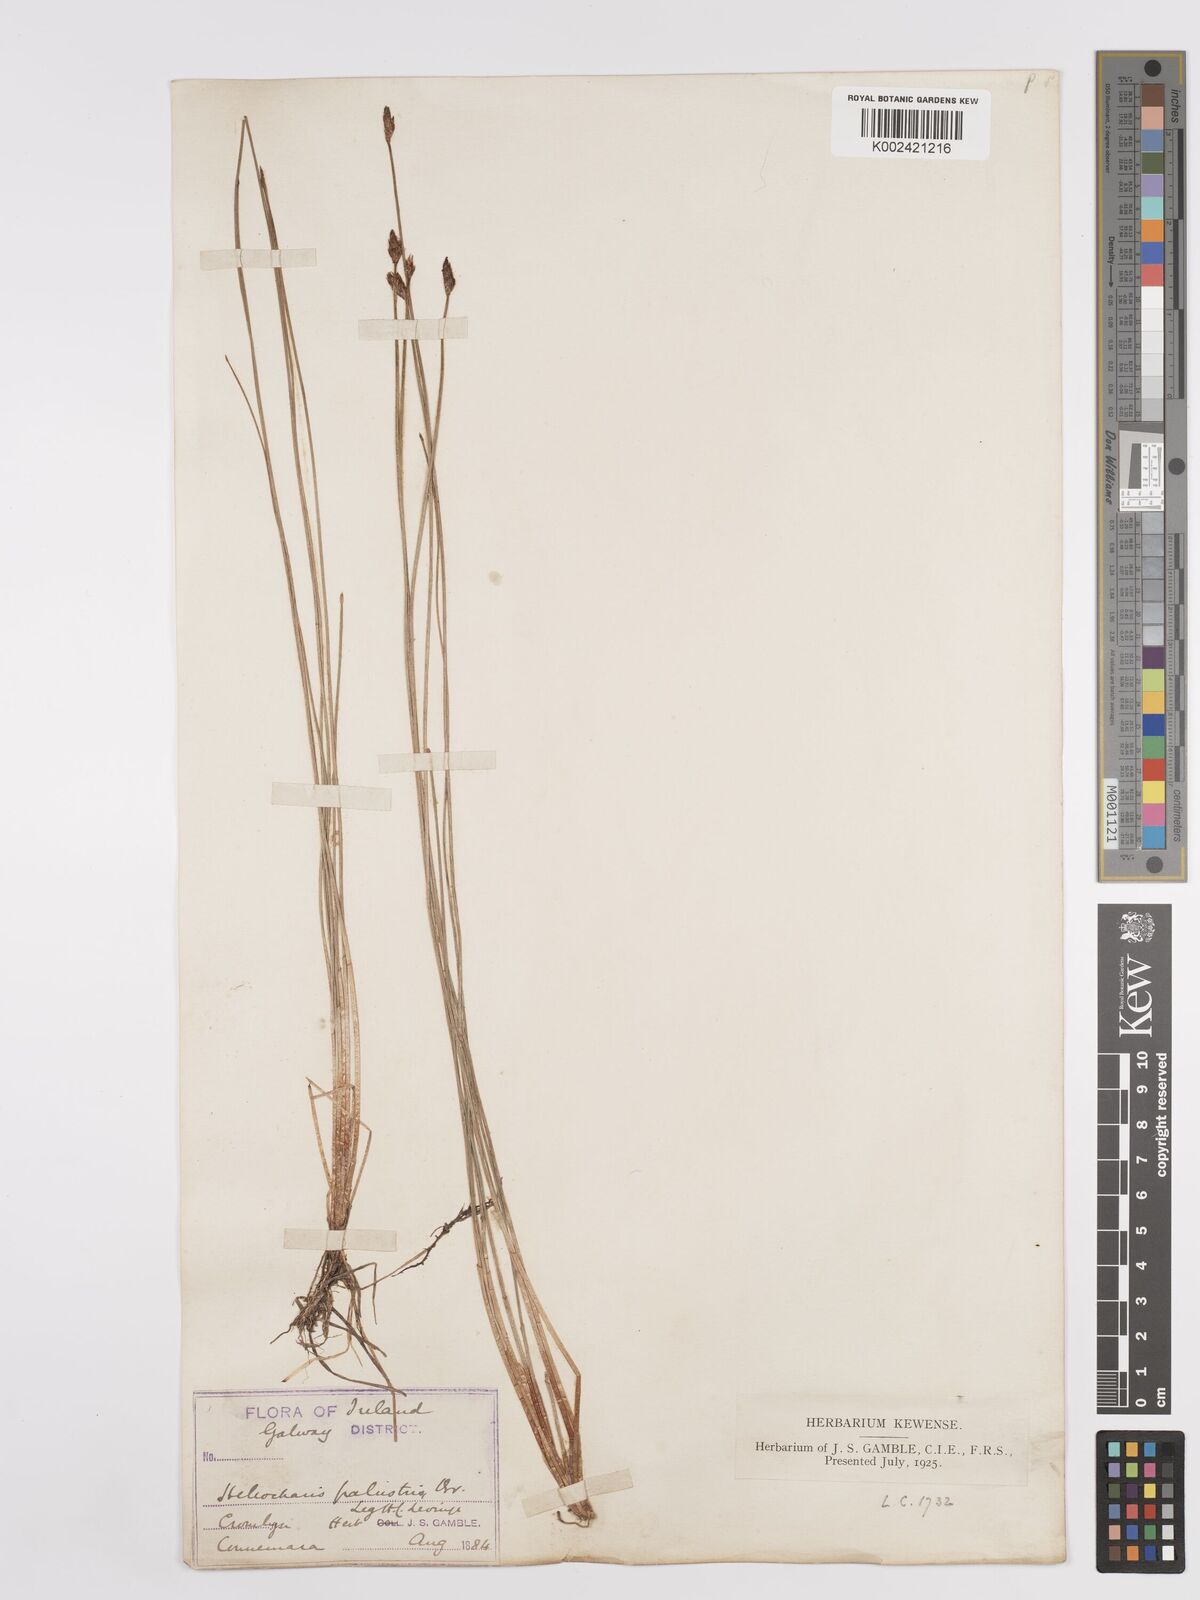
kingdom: Plantae
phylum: Tracheophyta
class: Liliopsida
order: Poales
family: Cyperaceae
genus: Eleocharis
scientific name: Eleocharis palustris
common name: Common spike-rush
